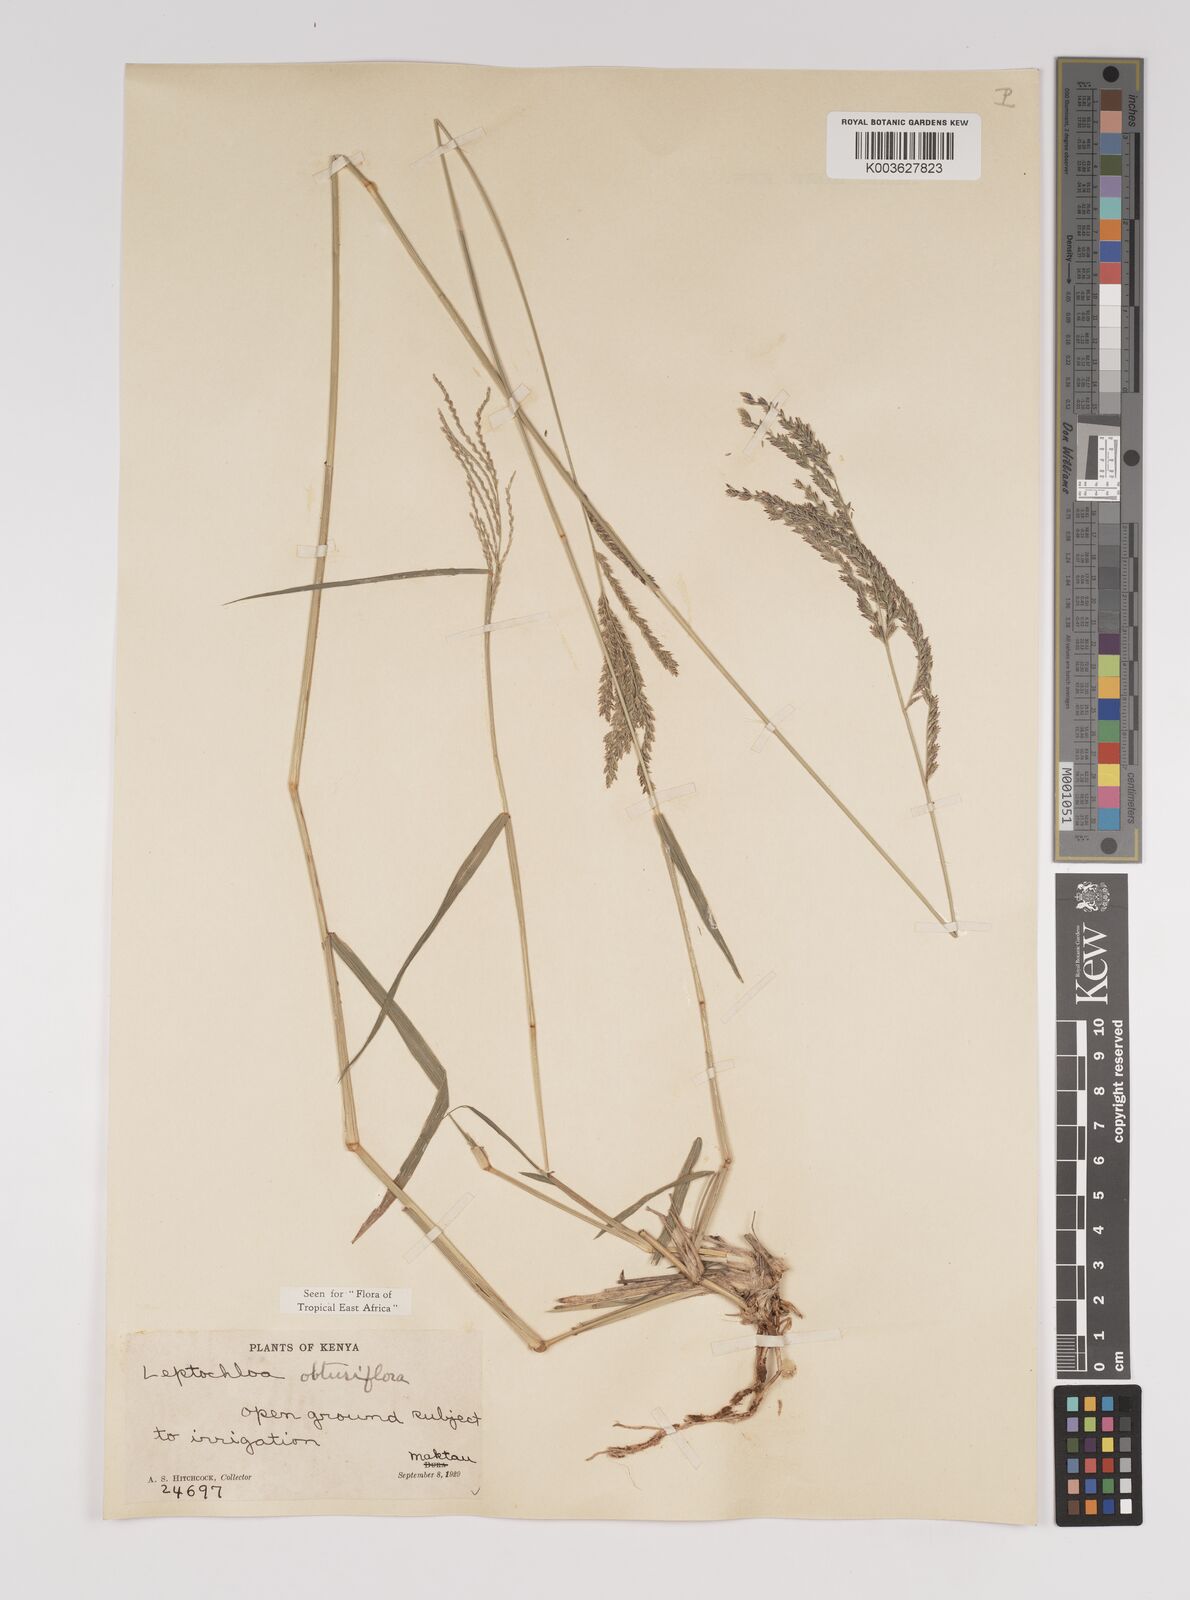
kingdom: Plantae
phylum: Tracheophyta
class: Liliopsida
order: Poales
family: Poaceae
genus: Disakisperma
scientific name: Disakisperma obtusiflorum
